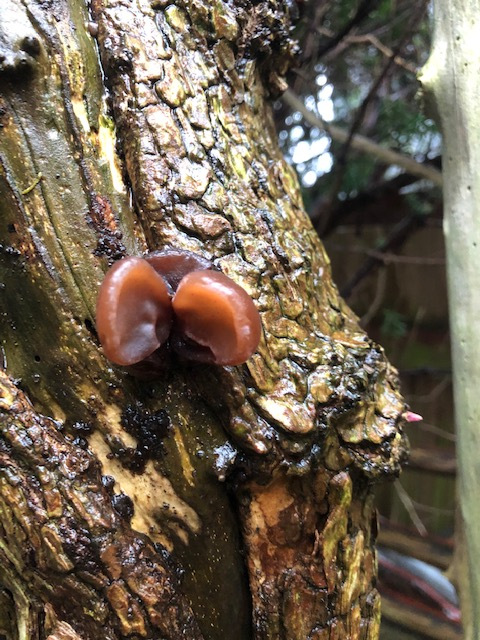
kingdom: Fungi
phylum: Basidiomycota
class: Agaricomycetes
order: Auriculariales
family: Auriculariaceae
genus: Auricularia
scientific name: Auricularia auricula-judae
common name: almindelig judasøre
